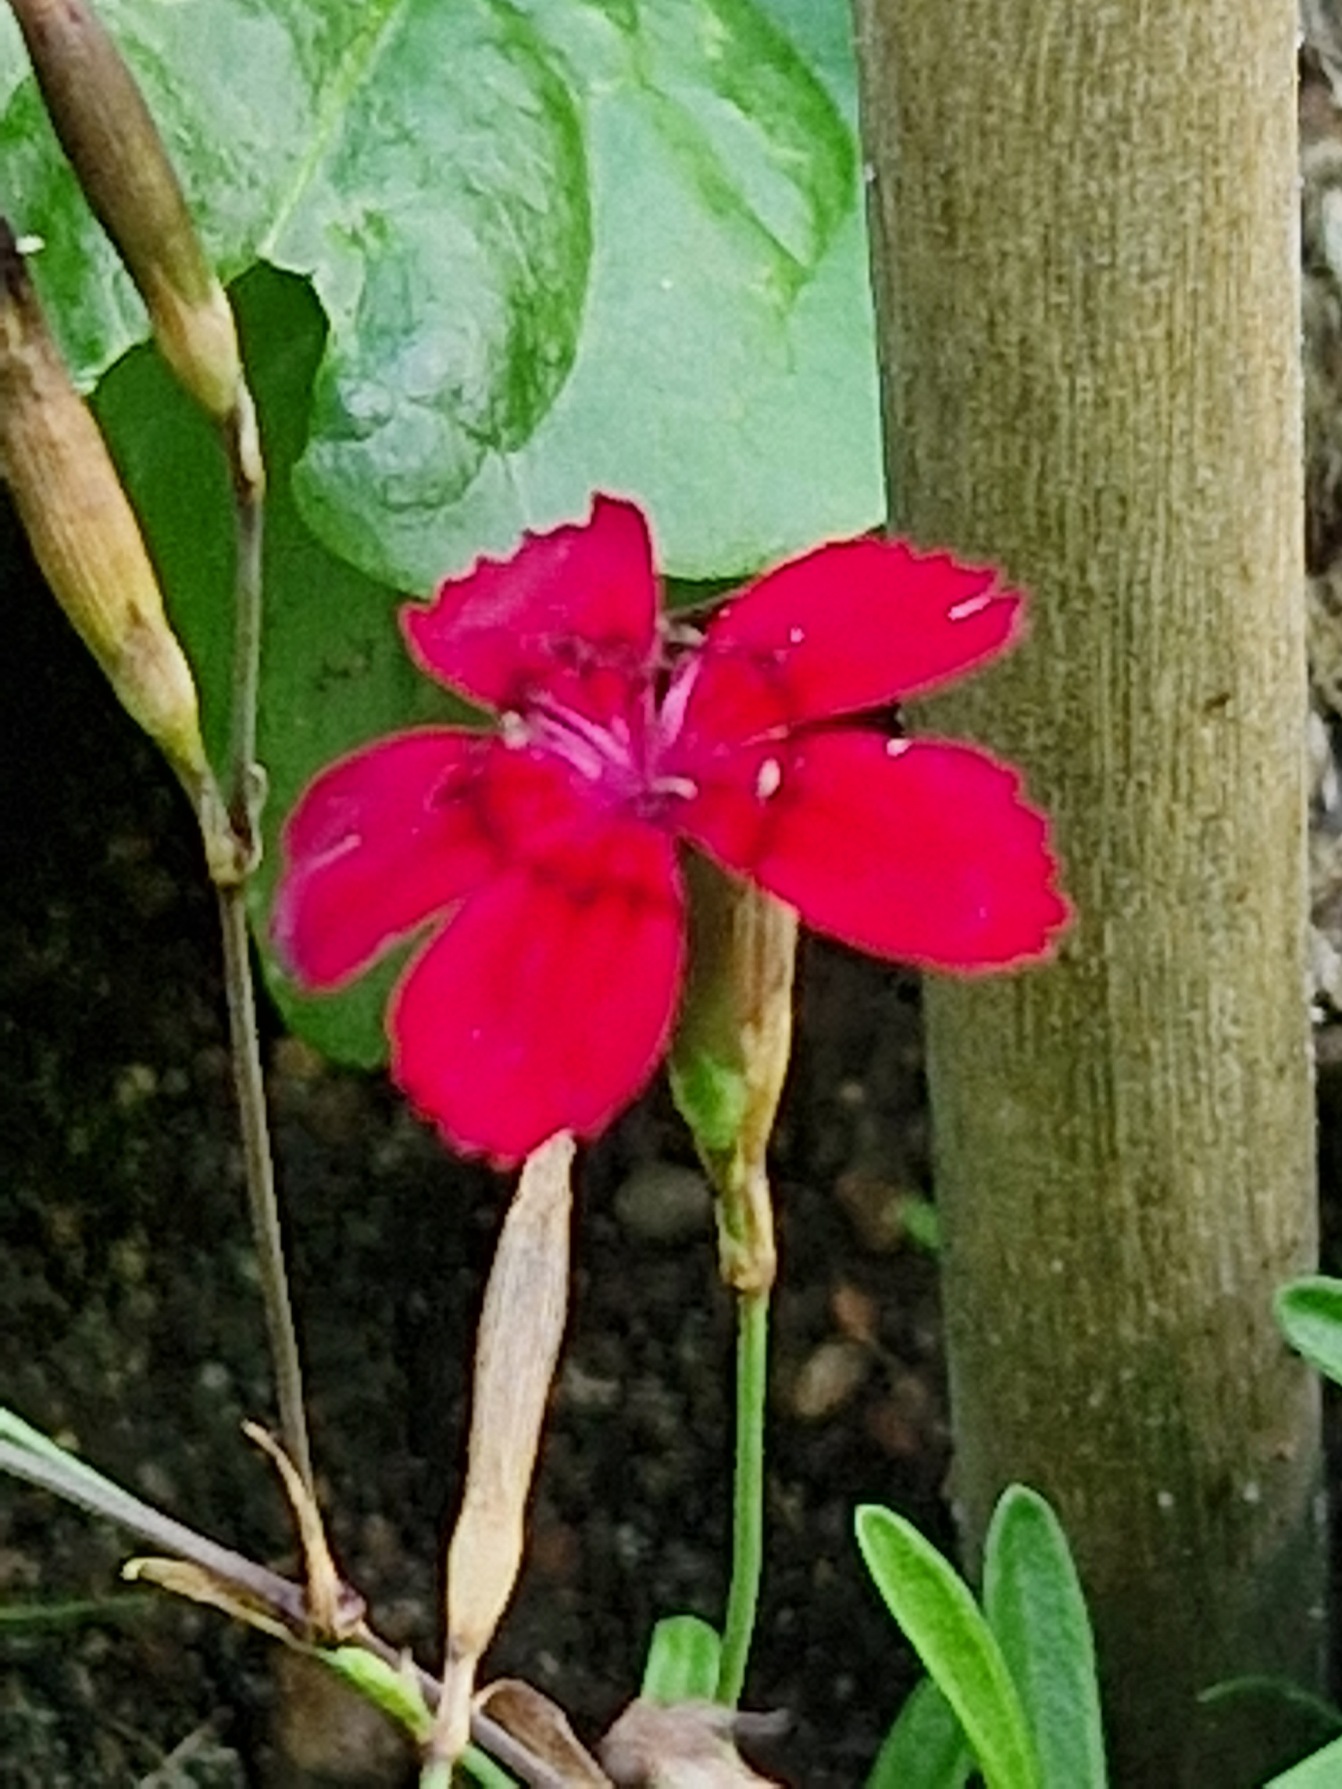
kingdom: Plantae
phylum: Tracheophyta
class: Magnoliopsida
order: Caryophyllales
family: Caryophyllaceae
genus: Dianthus
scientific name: Dianthus deltoides
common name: Bakke-nellike
